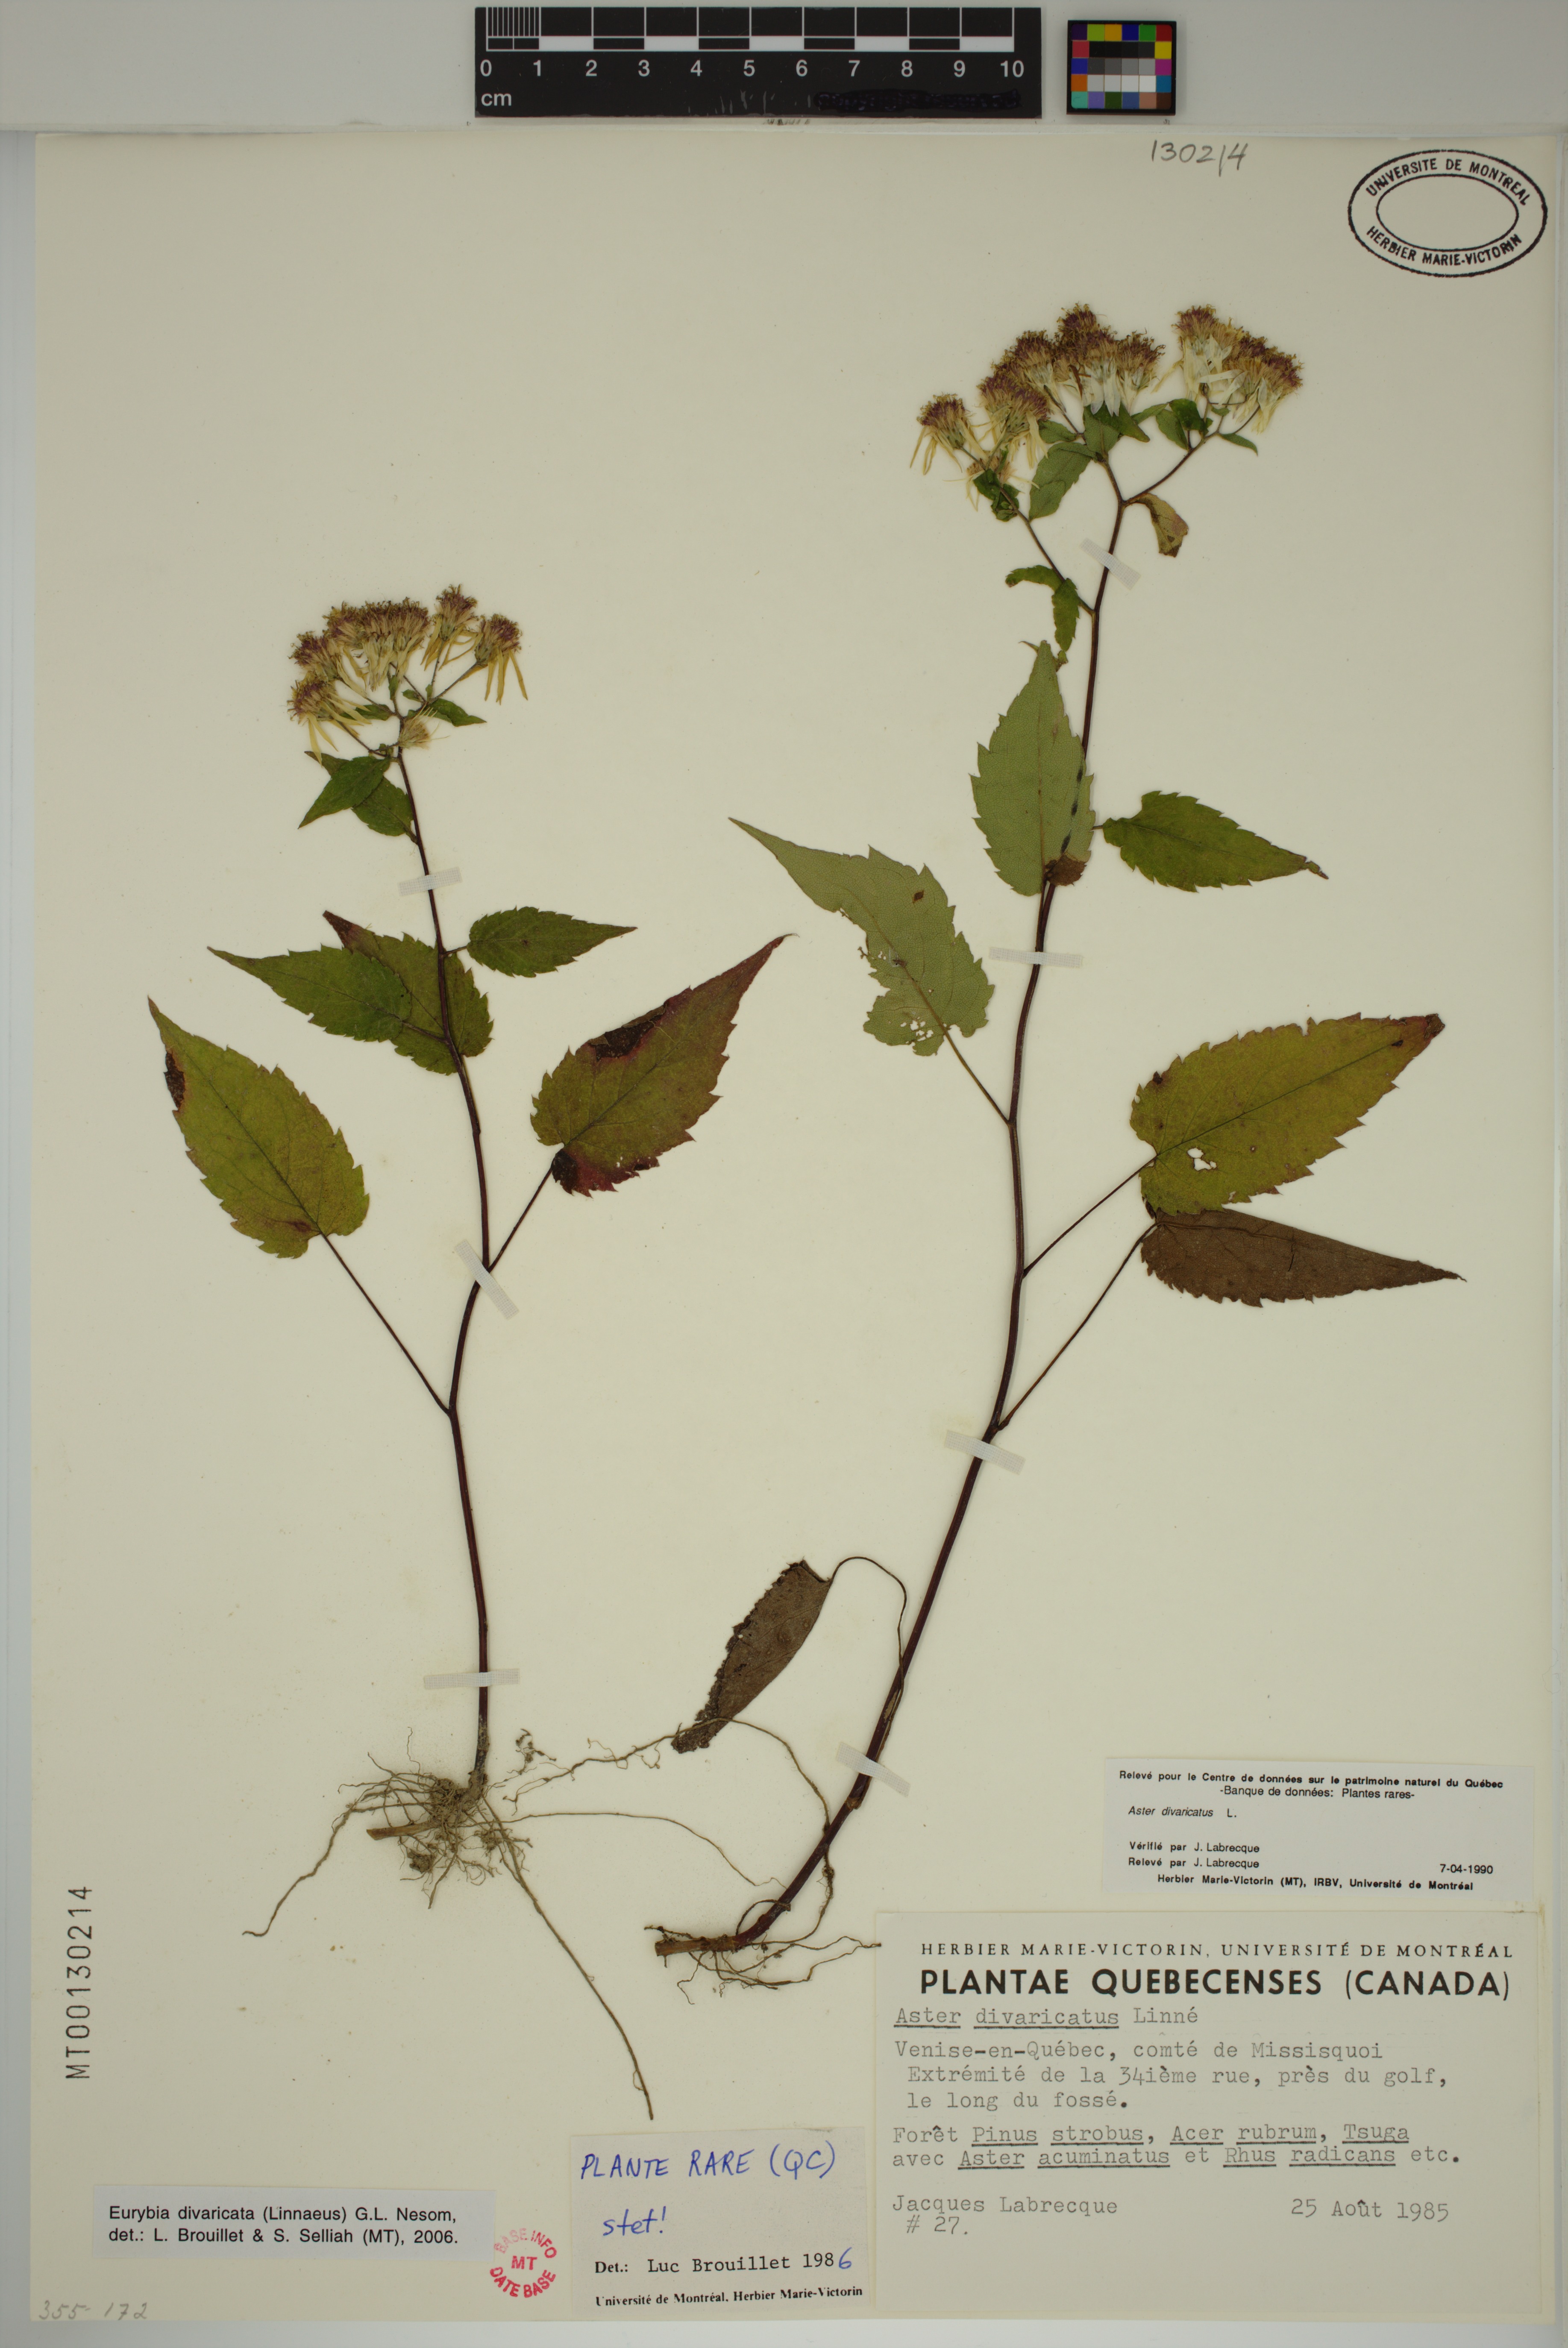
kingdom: Plantae
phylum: Tracheophyta
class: Magnoliopsida
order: Asterales
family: Asteraceae
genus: Eurybia
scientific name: Eurybia divaricata
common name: White wood aster
